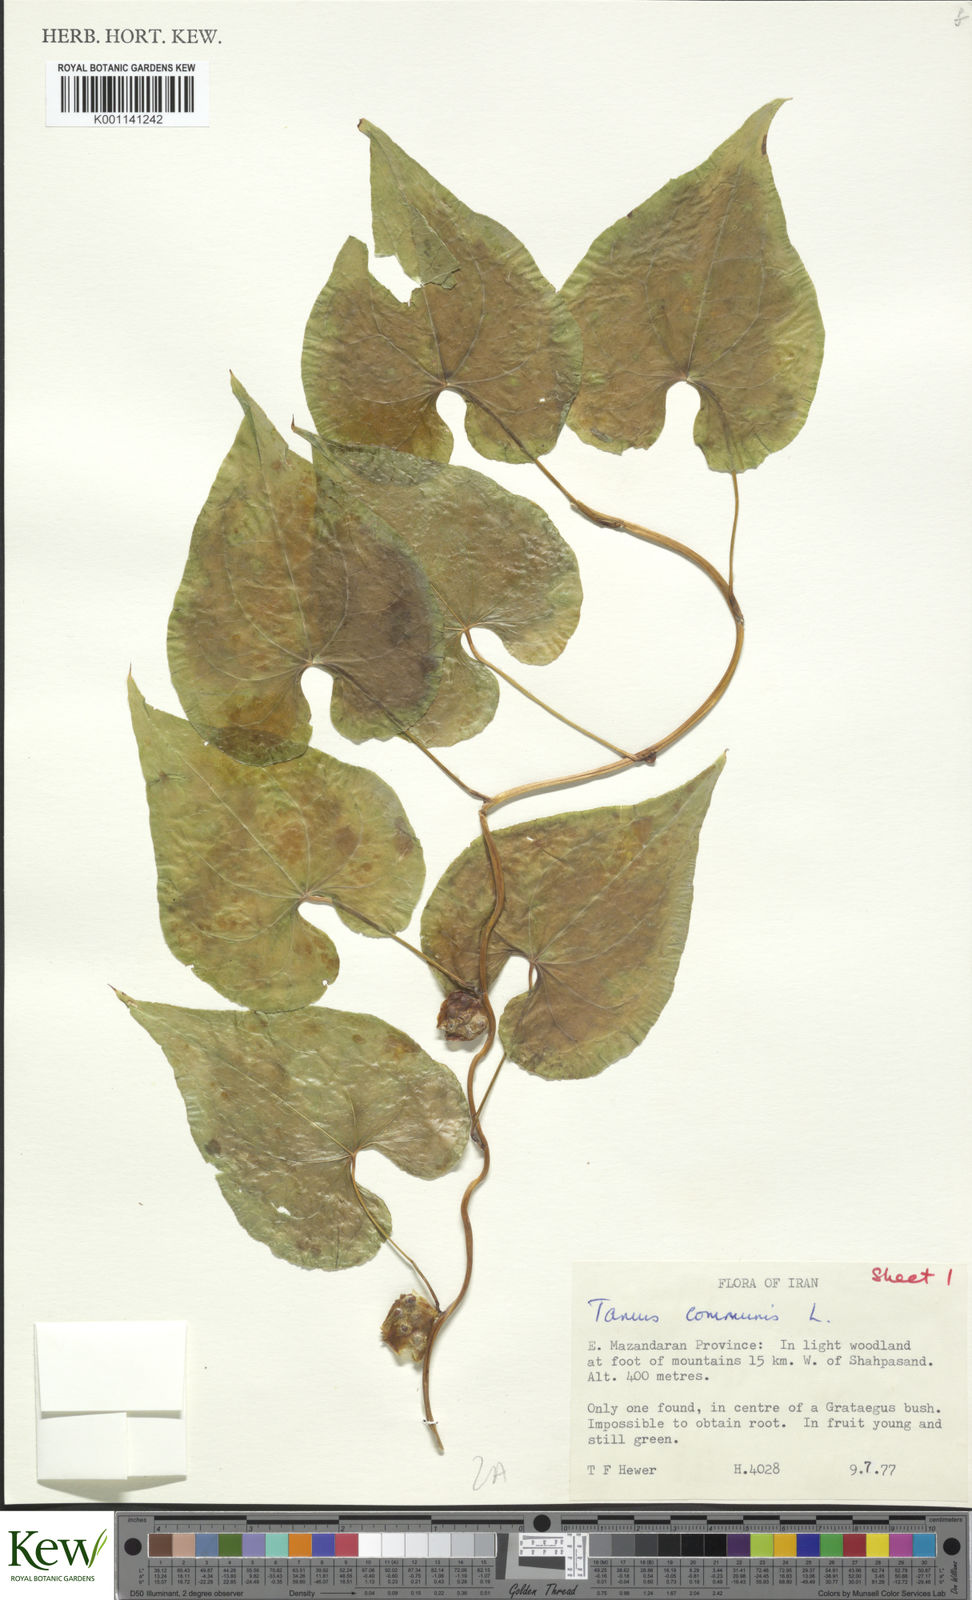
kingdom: Plantae
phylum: Tracheophyta
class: Liliopsida
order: Dioscoreales
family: Dioscoreaceae
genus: Dioscorea
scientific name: Dioscorea communis
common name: Black-bindweed
